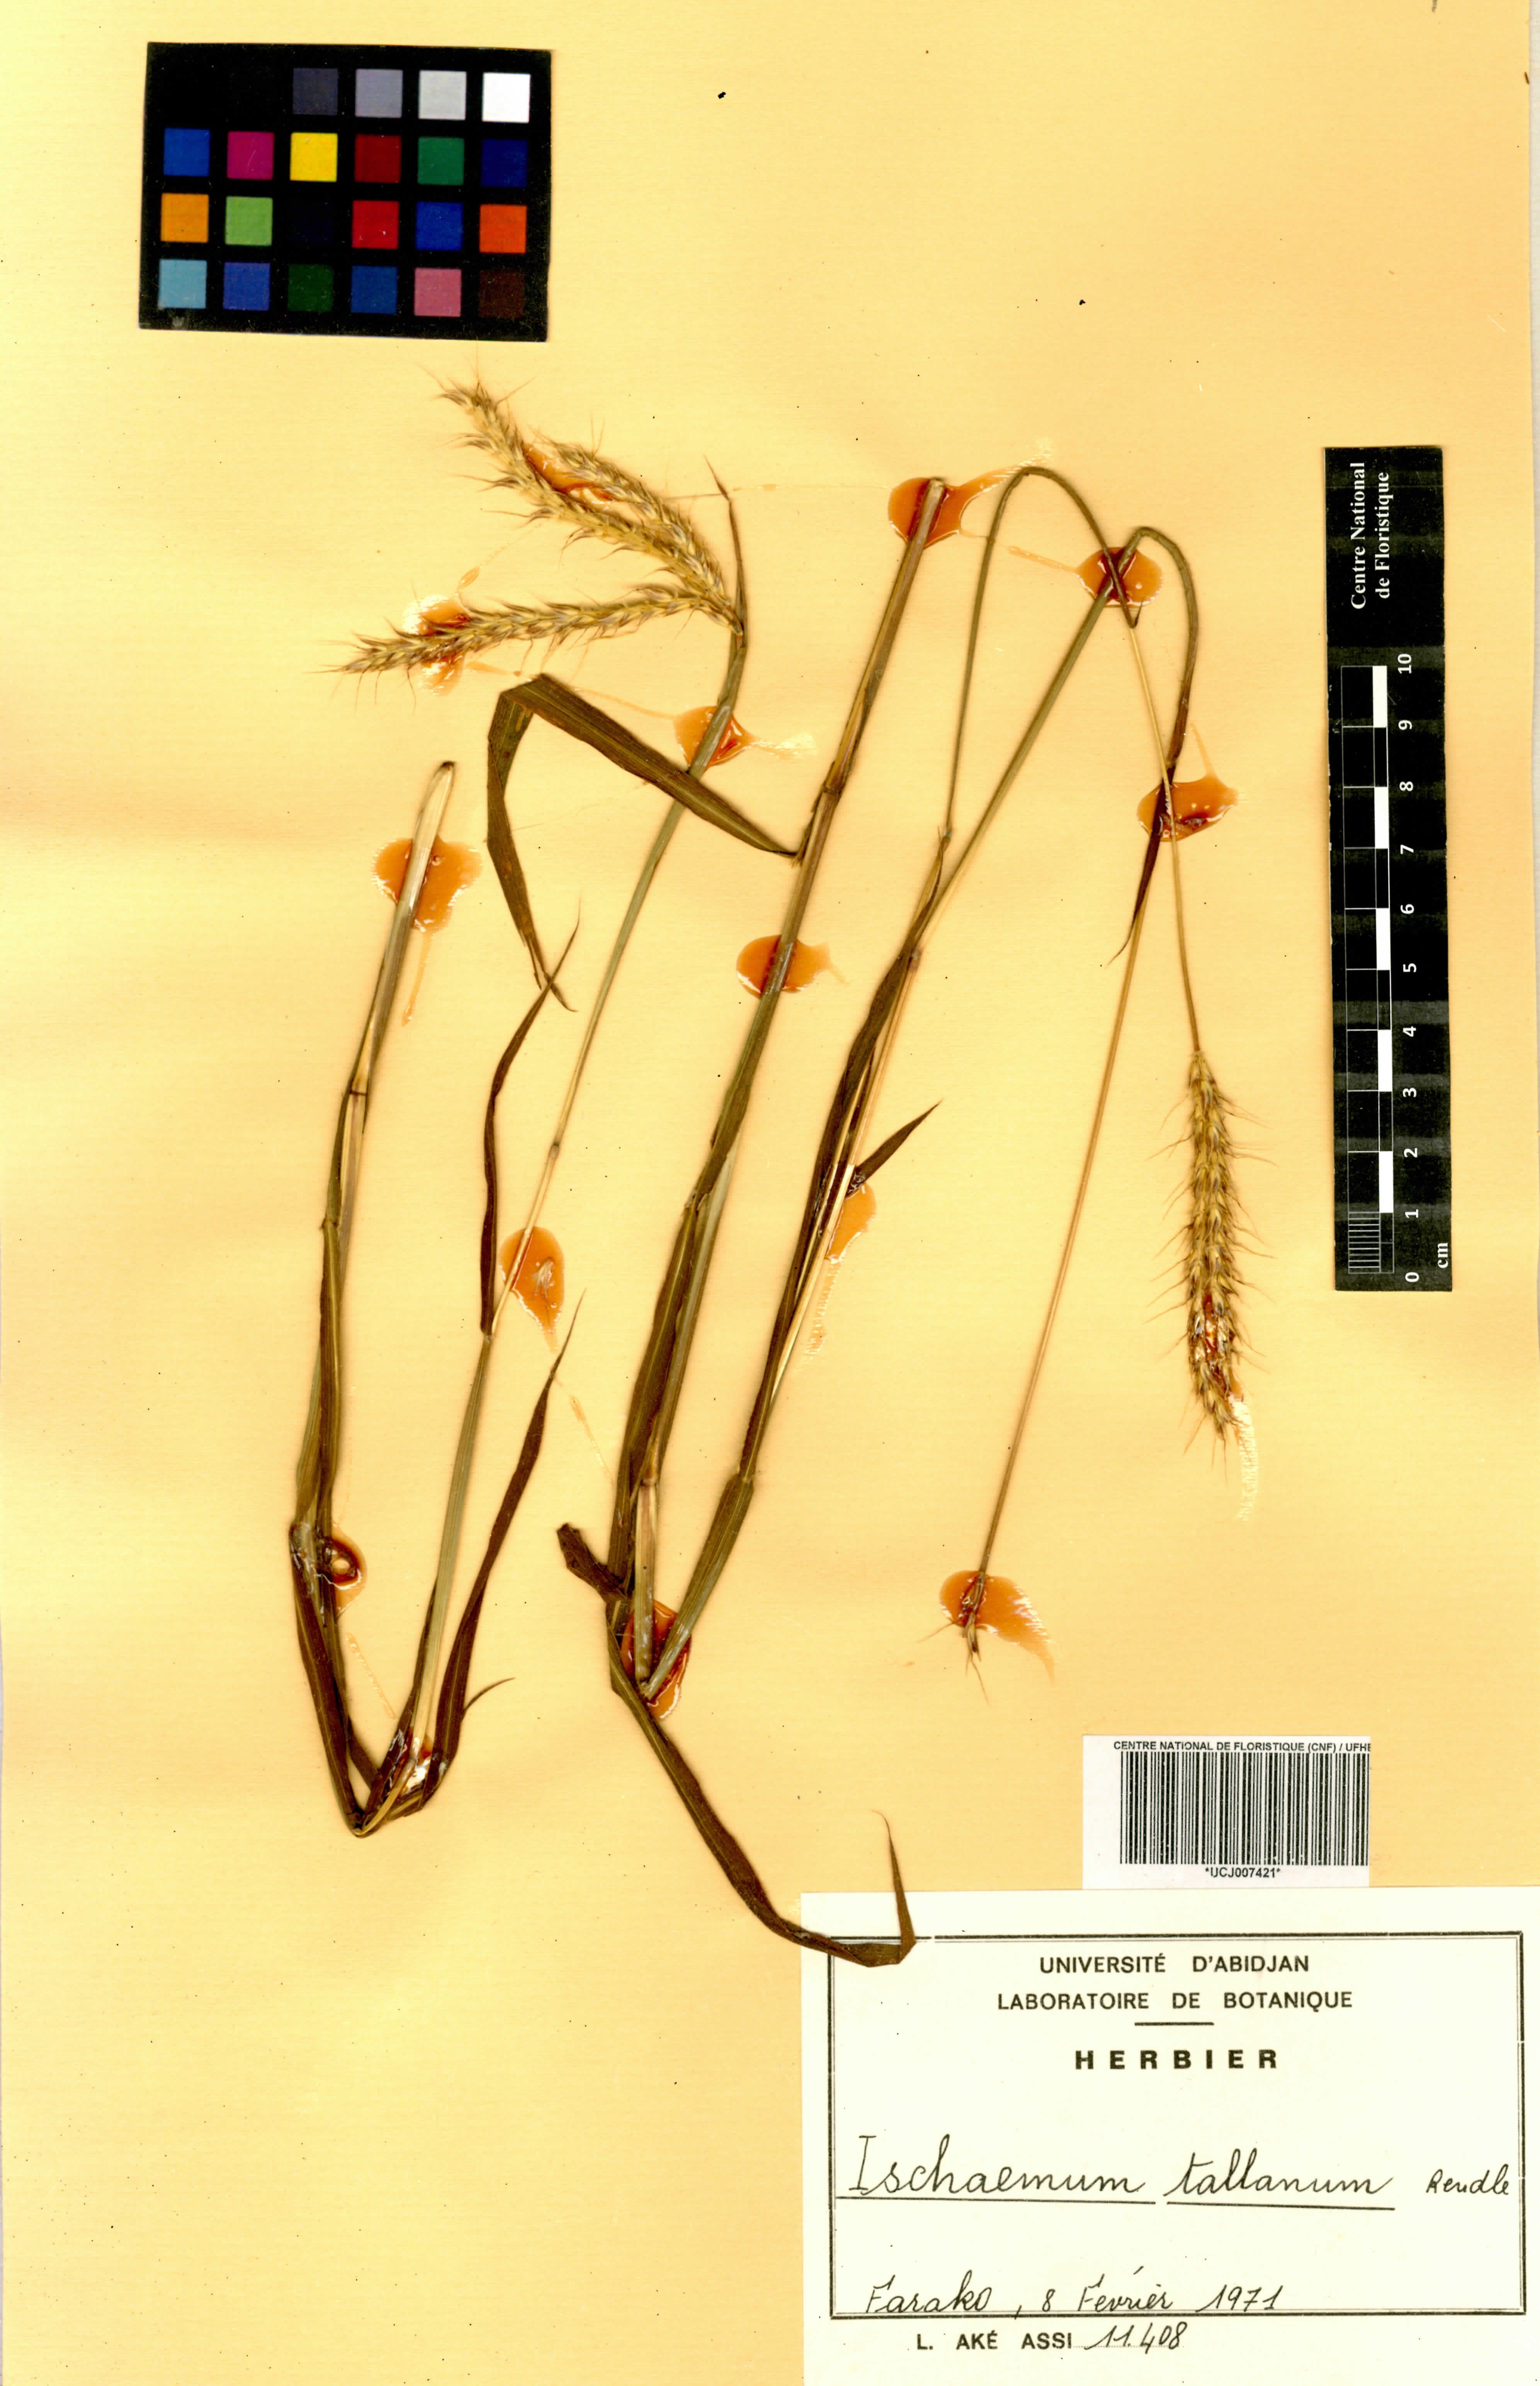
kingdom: Plantae
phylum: Tracheophyta
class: Liliopsida
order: Poales
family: Poaceae
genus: Ischaemum
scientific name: Ischaemum polystachyum
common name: Paddle grass
